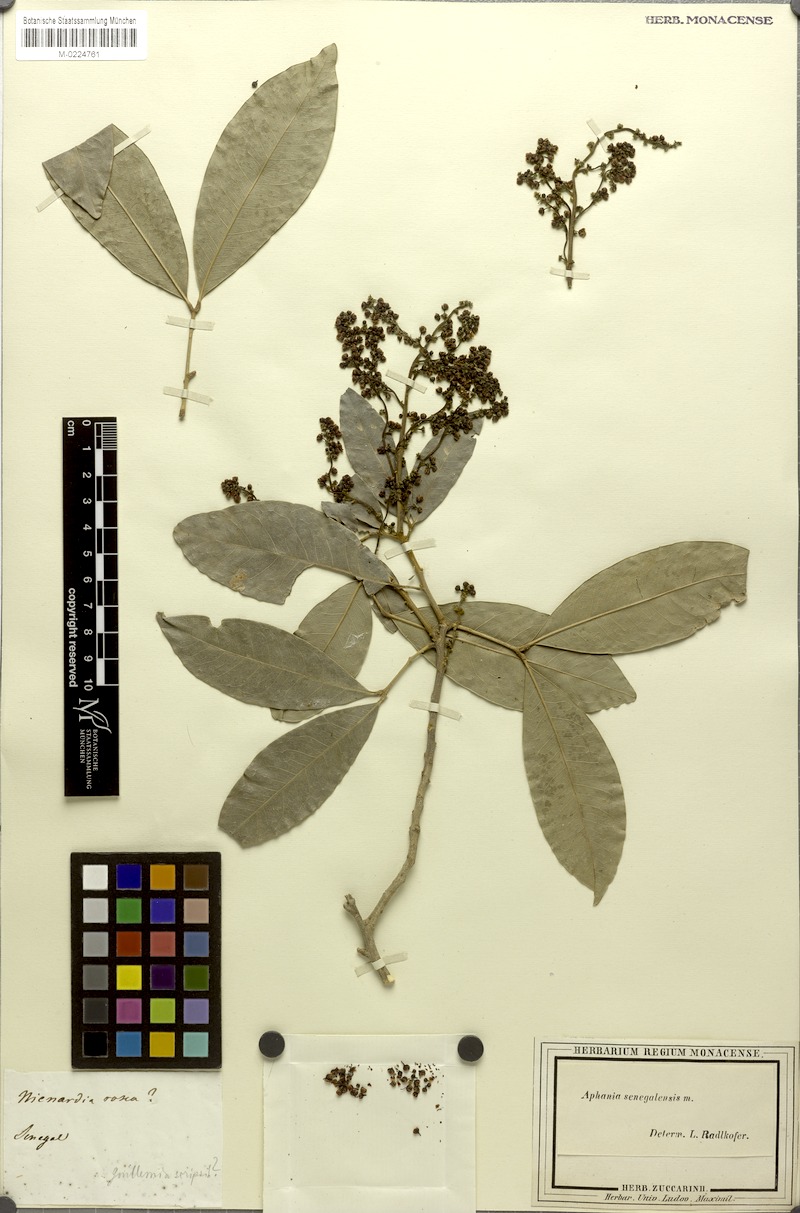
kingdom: Plantae
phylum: Tracheophyta
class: Magnoliopsida
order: Sapindales
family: Sapindaceae
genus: Lepisanthes
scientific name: Lepisanthes senegalensis
